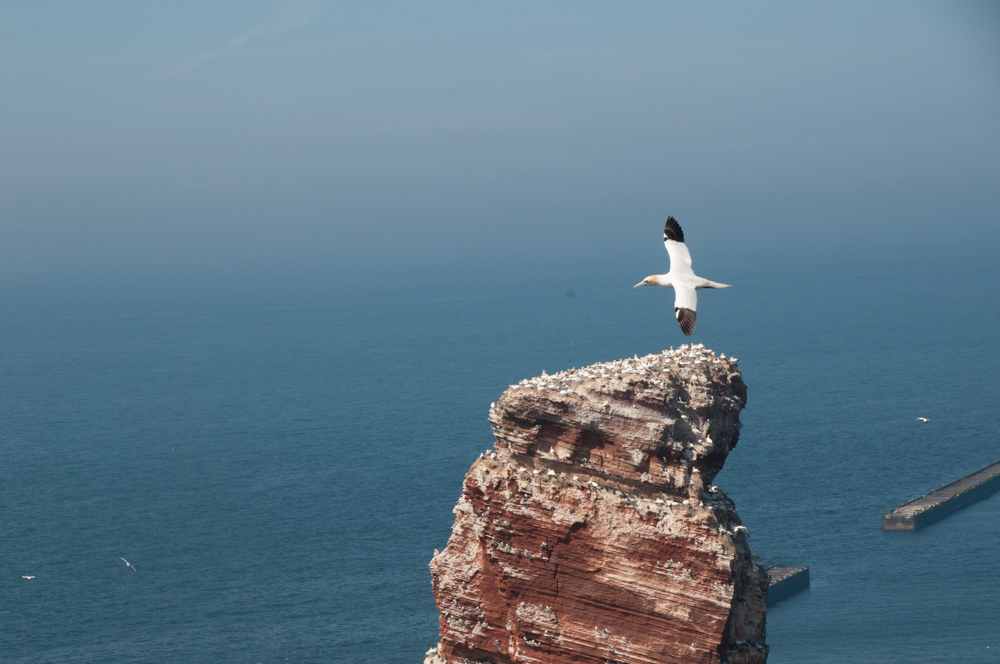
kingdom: Animalia
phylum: Chordata
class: Aves
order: Suliformes
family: Sulidae
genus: Morus
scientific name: Morus bassanus
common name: Northern gannet
